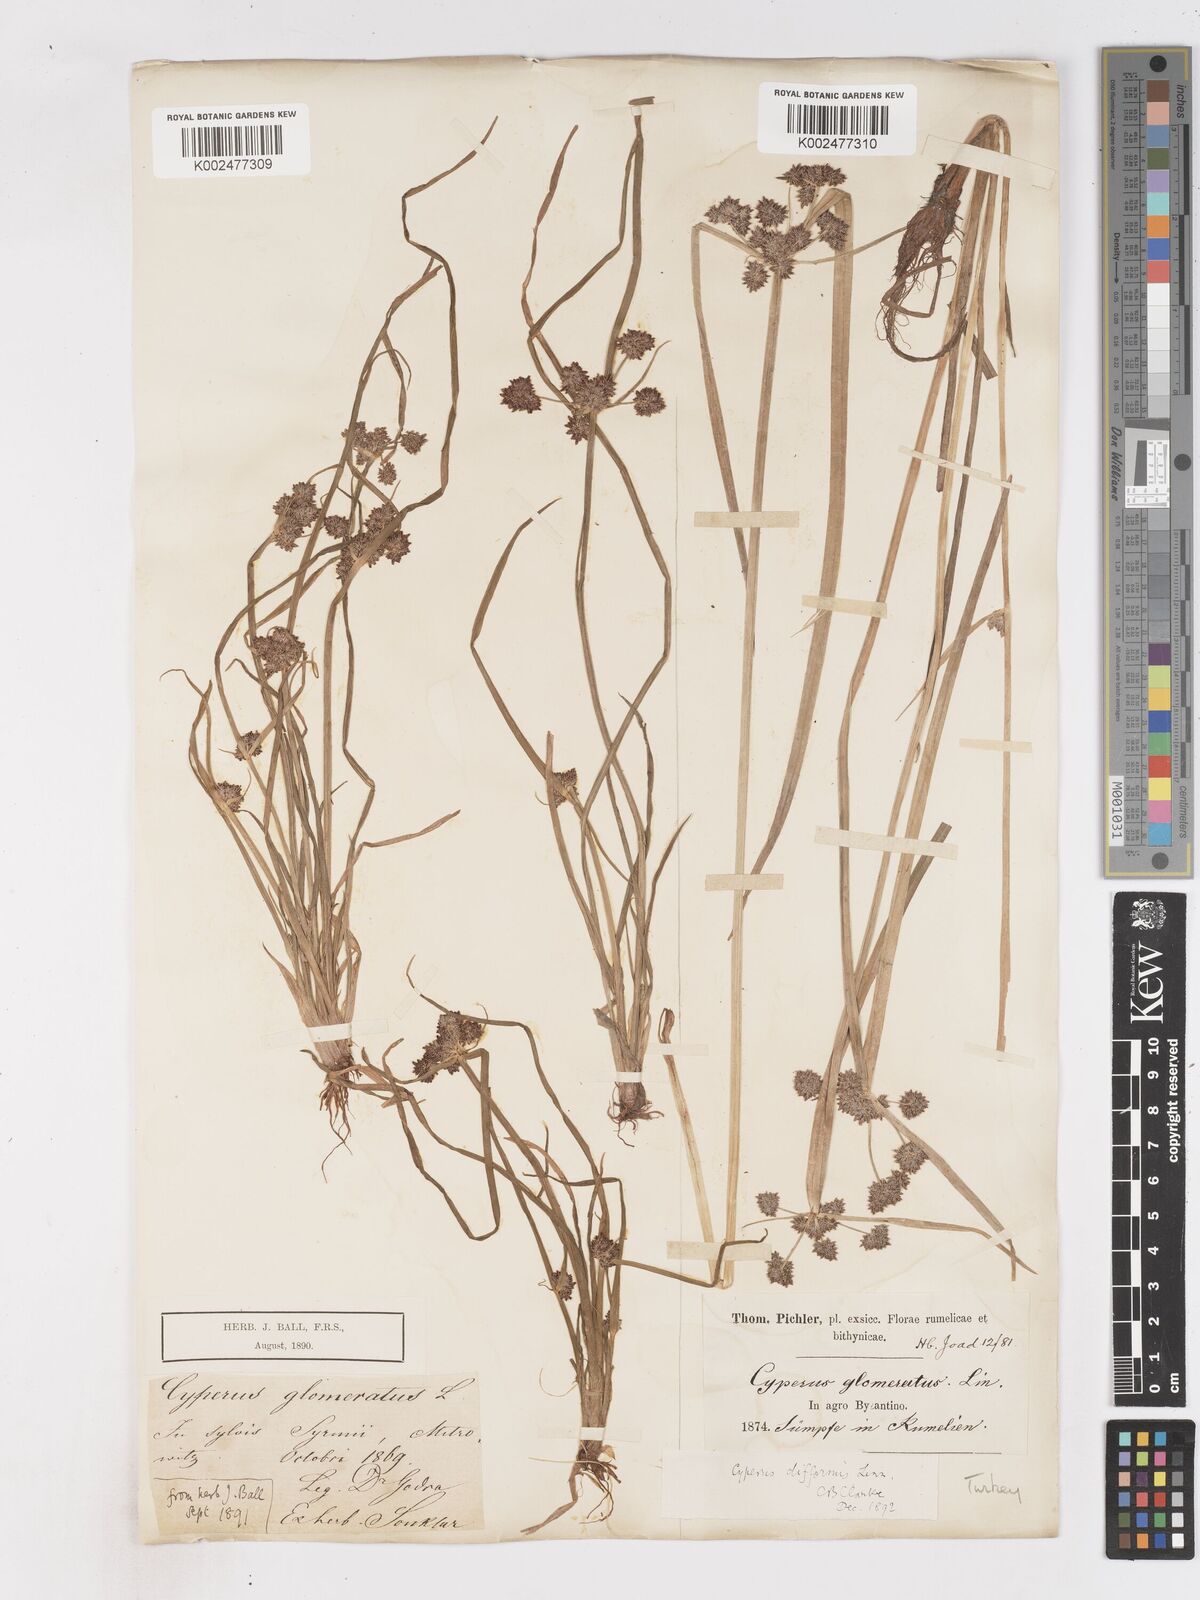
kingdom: Plantae
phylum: Tracheophyta
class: Liliopsida
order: Poales
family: Cyperaceae
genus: Cyperus
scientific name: Cyperus difformis
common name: Variable flatsedge
